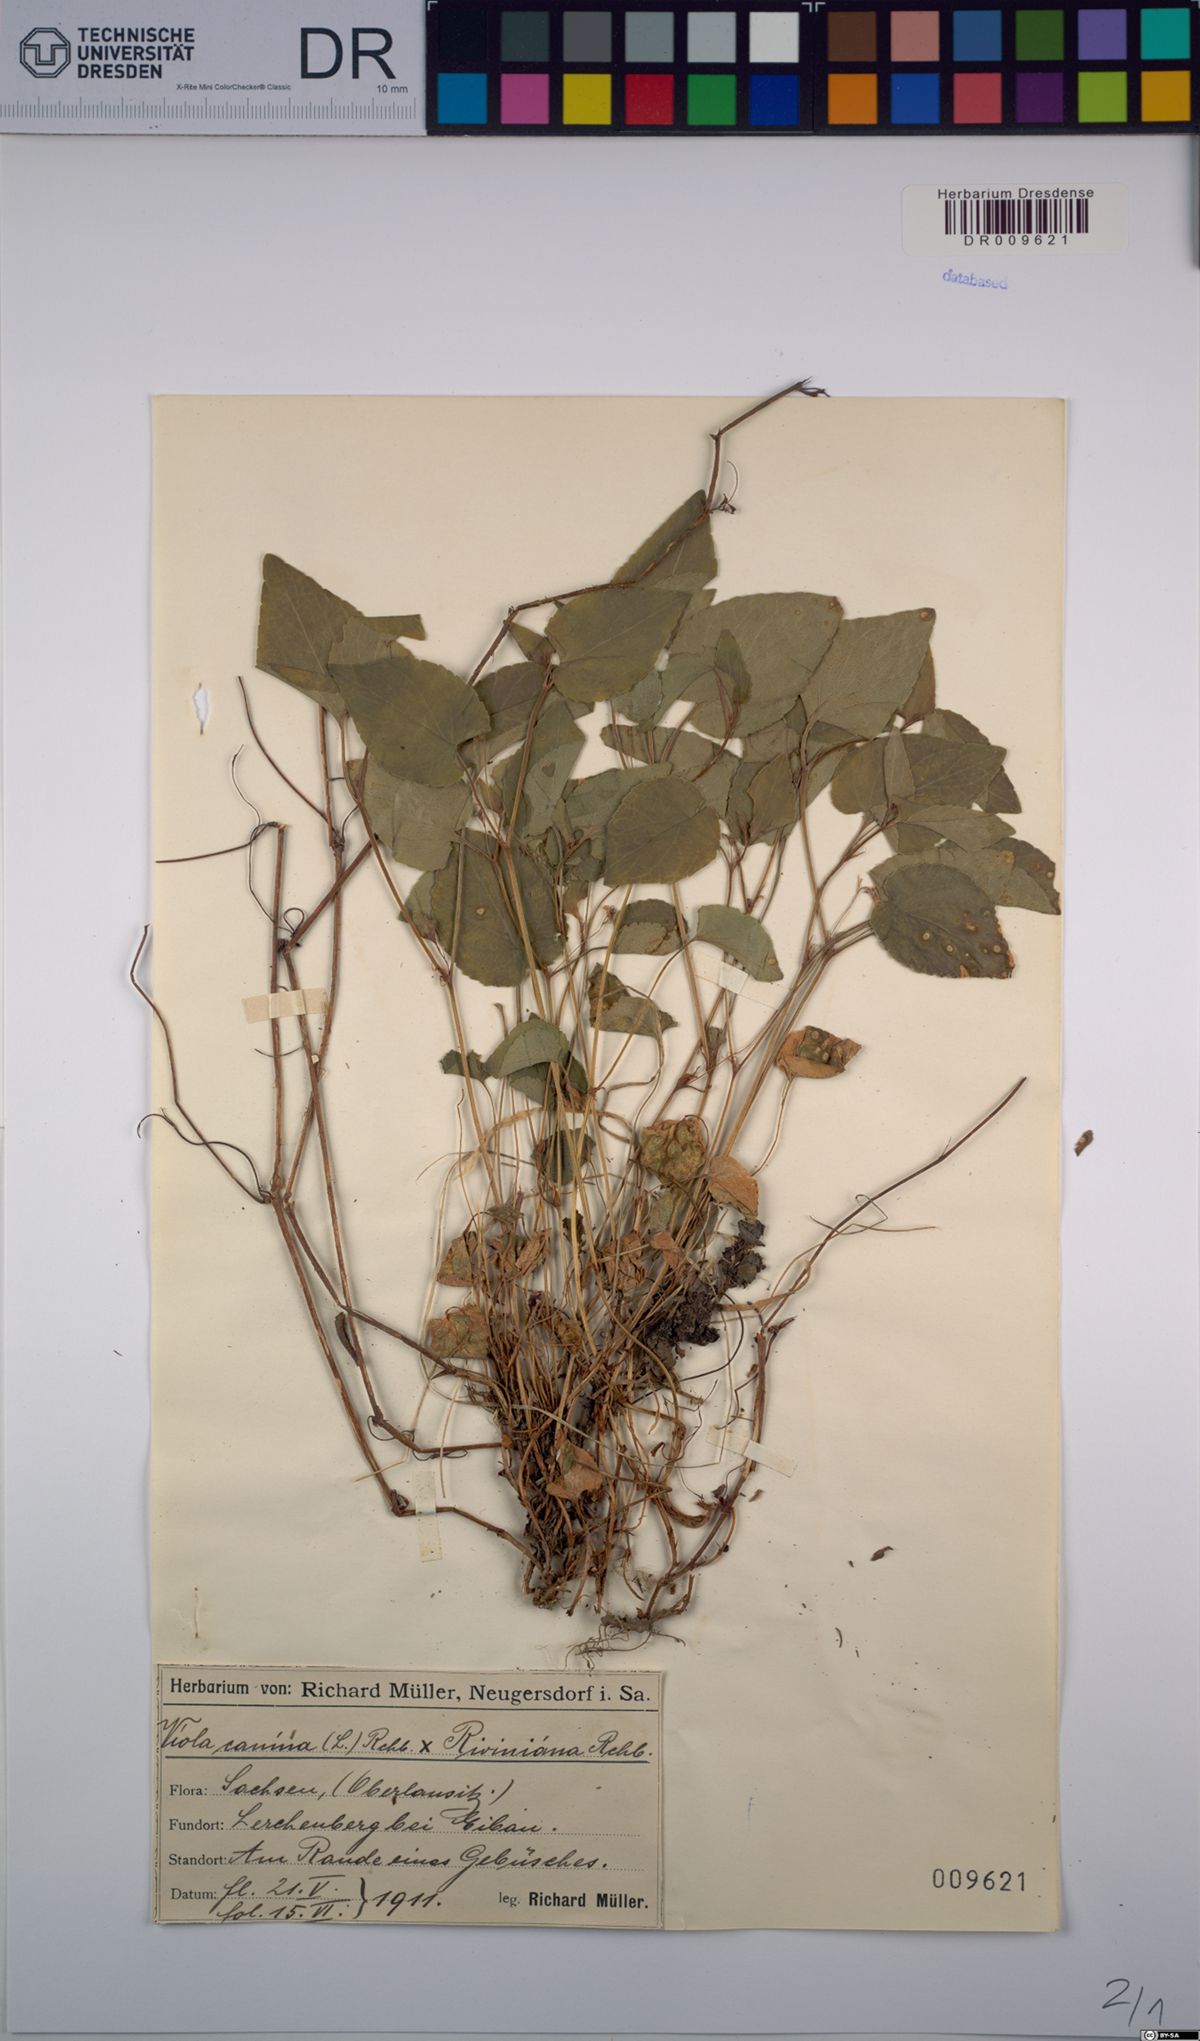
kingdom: Plantae
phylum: Tracheophyta
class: Magnoliopsida
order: Malpighiales
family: Violaceae
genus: Viola
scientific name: Viola riviniana
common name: Common dog-violet
